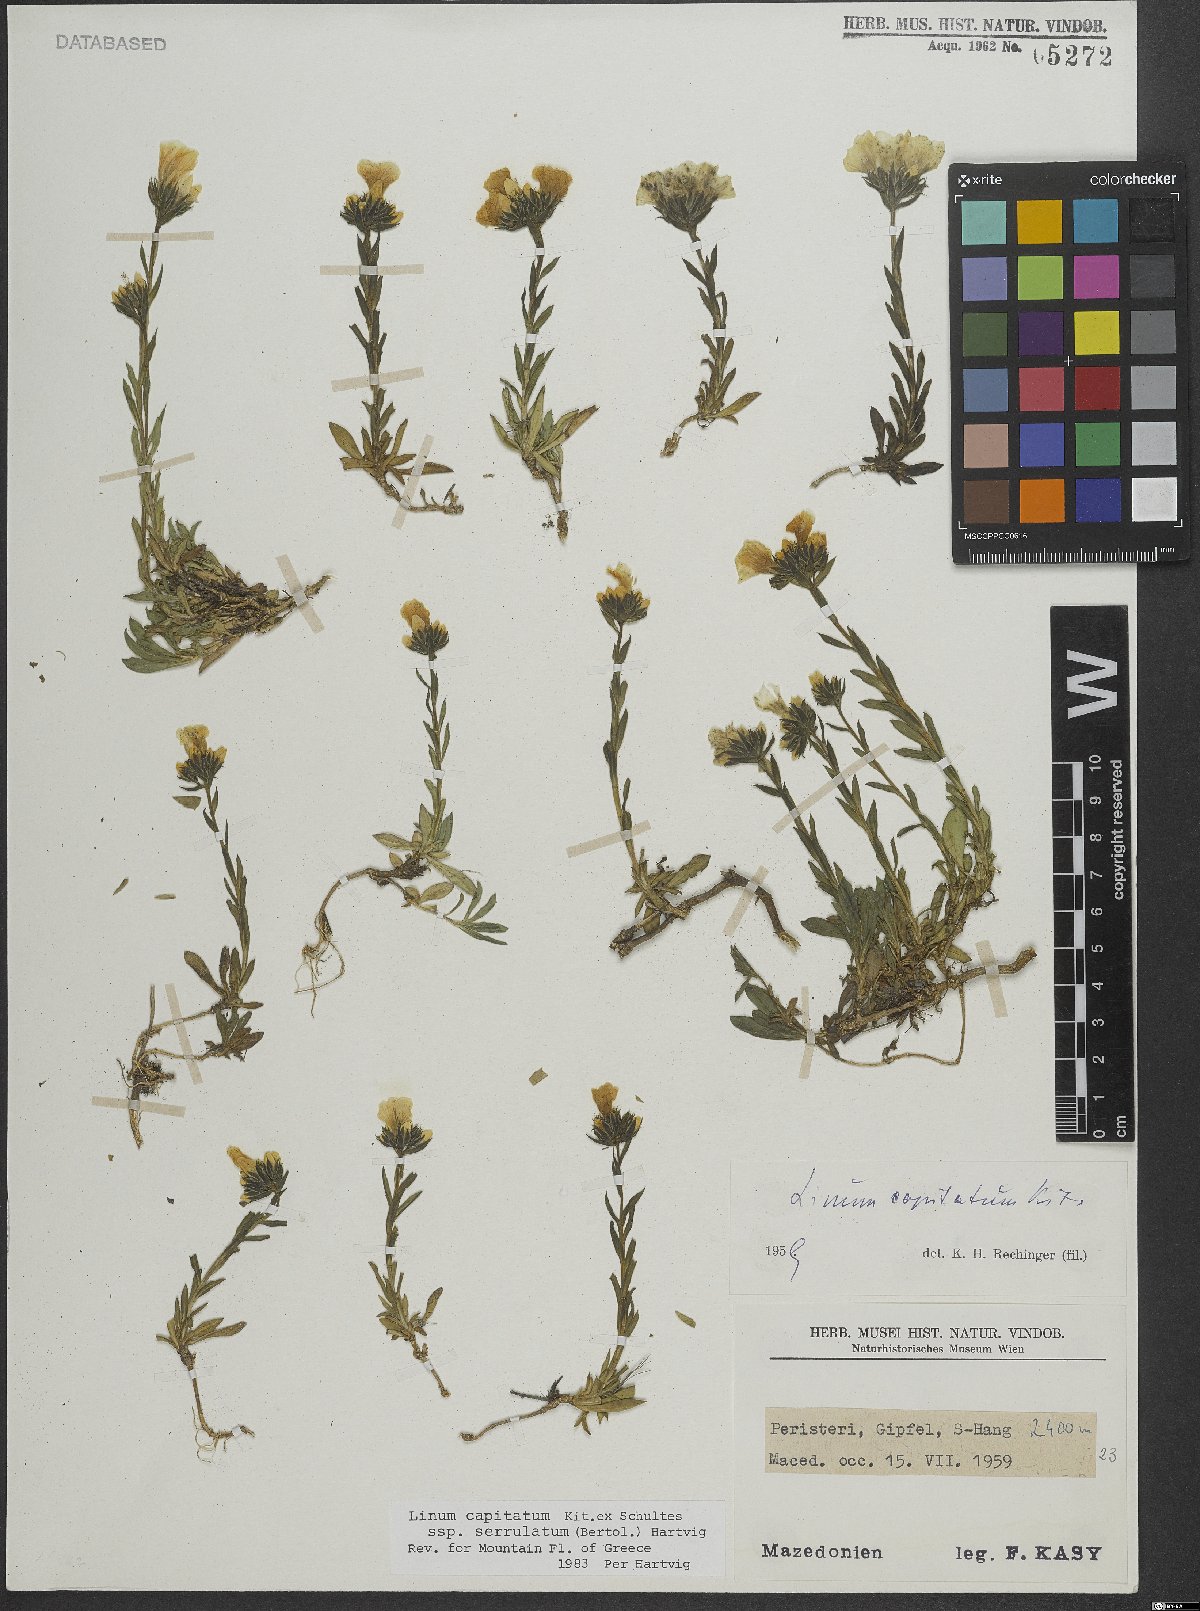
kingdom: Plantae
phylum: Tracheophyta
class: Magnoliopsida
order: Malpighiales
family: Linaceae
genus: Linum
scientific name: Linum capitatum
